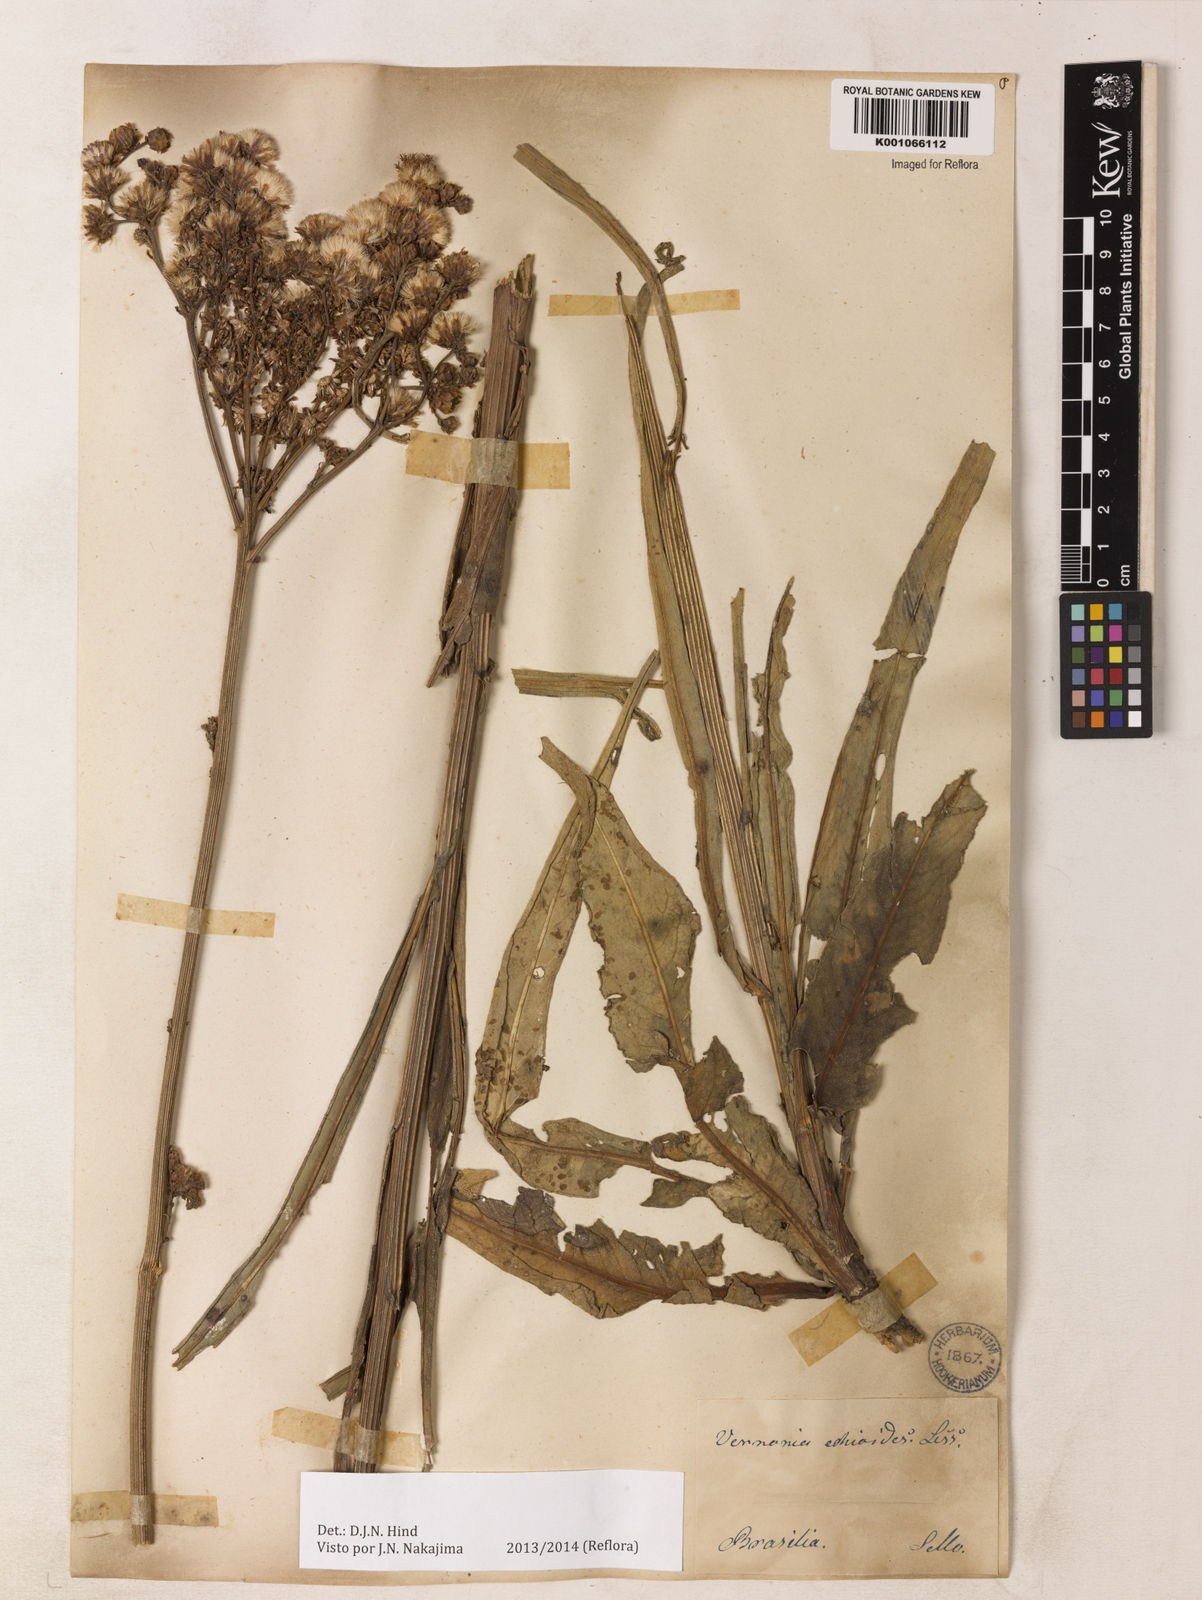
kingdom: Plantae
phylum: Tracheophyta
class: Magnoliopsida
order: Asterales
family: Asteraceae
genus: Vernonia
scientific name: Vernonia echioides
